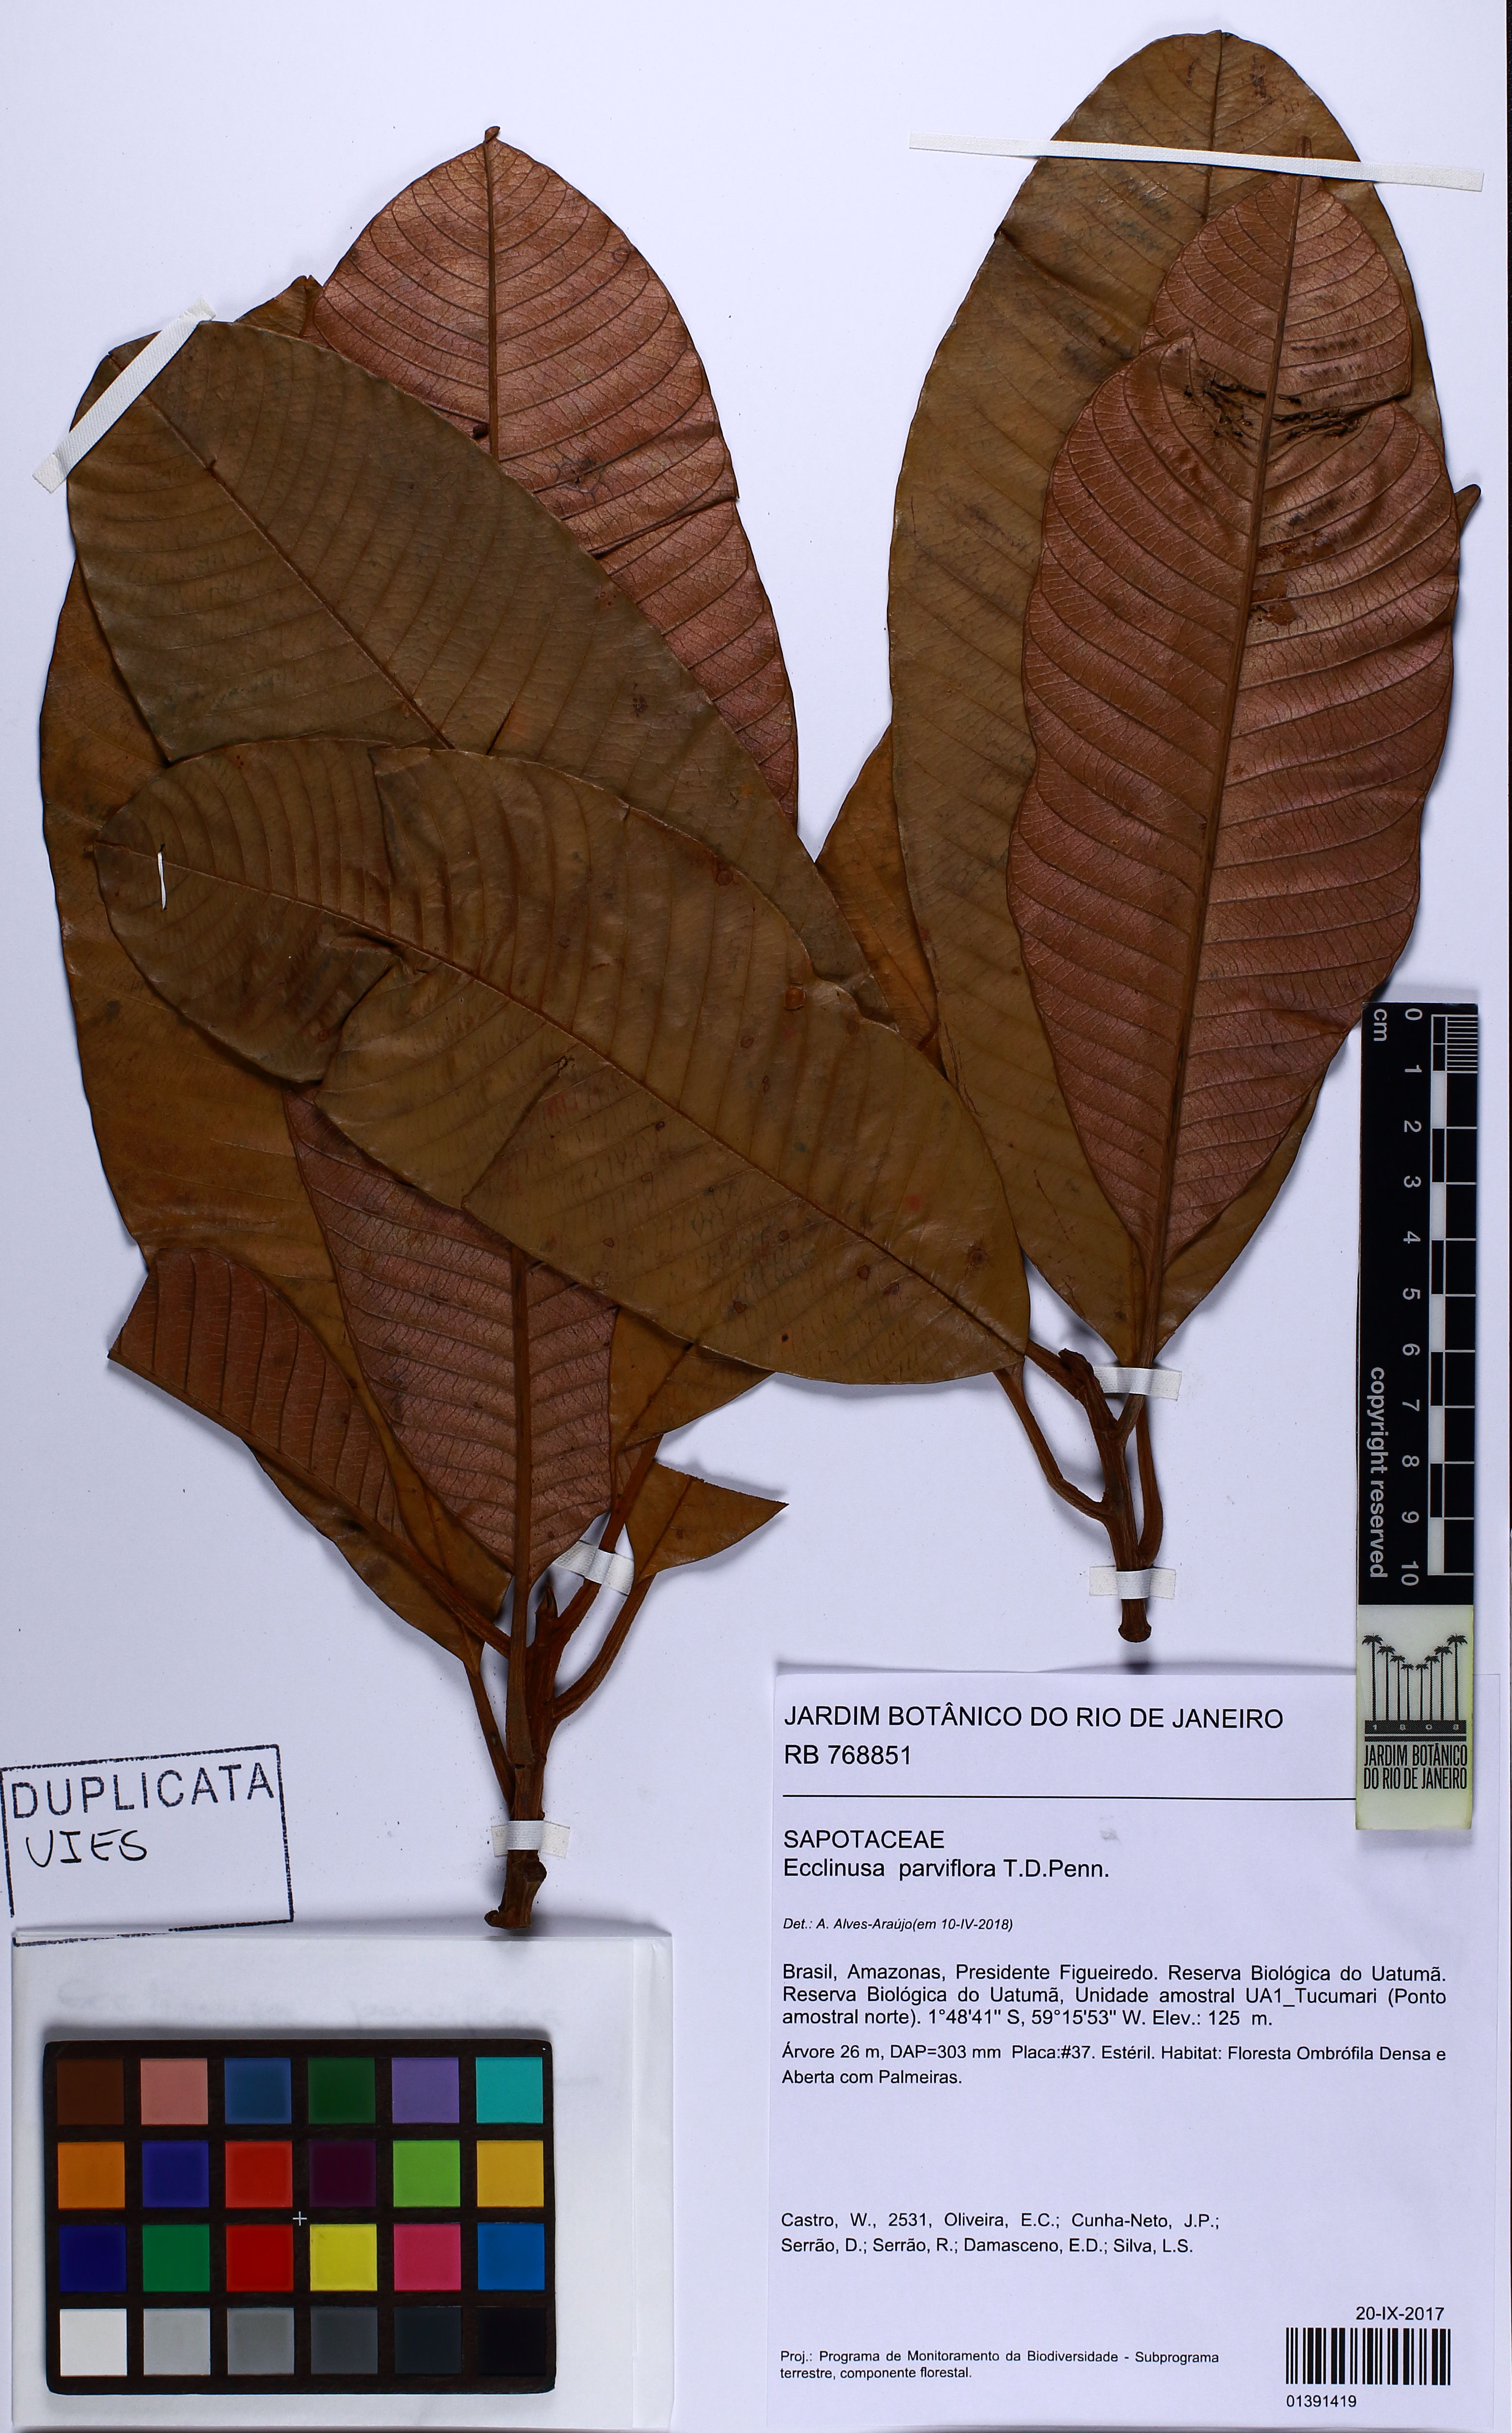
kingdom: Plantae
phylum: Tracheophyta
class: Magnoliopsida
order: Ericales
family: Sapotaceae
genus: Ecclinusa
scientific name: Ecclinusa parviflora
